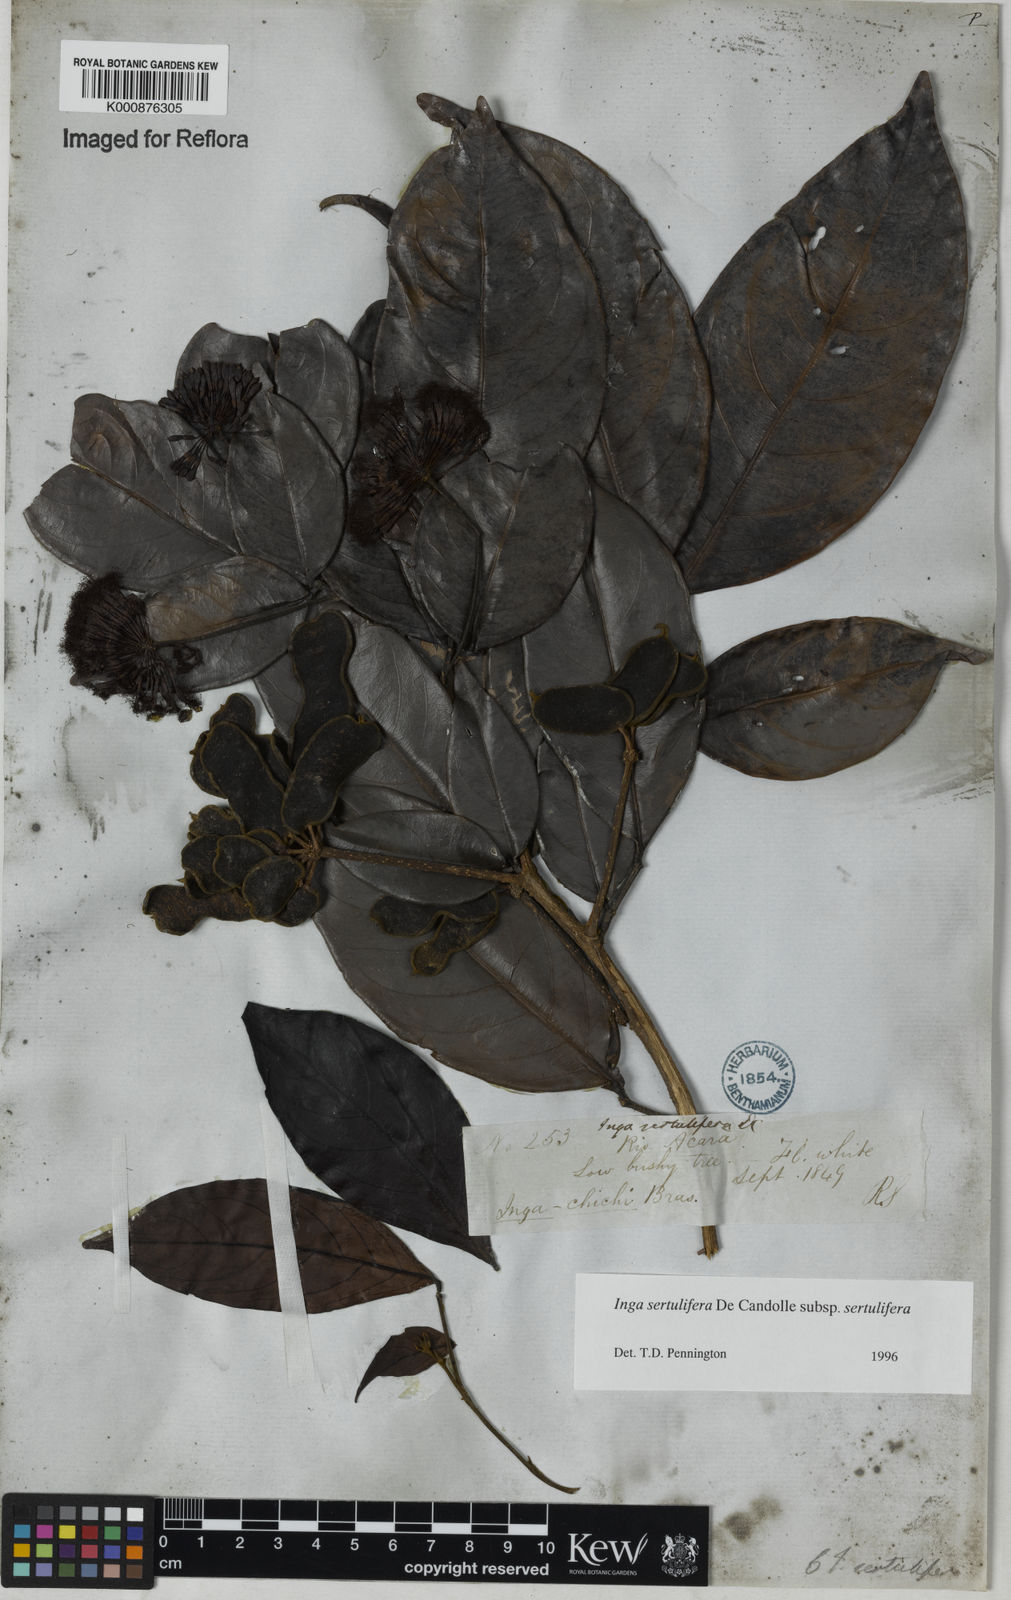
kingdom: Plantae
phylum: Tracheophyta
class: Magnoliopsida
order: Fabales
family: Fabaceae
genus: Inga
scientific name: Inga sertulifera
